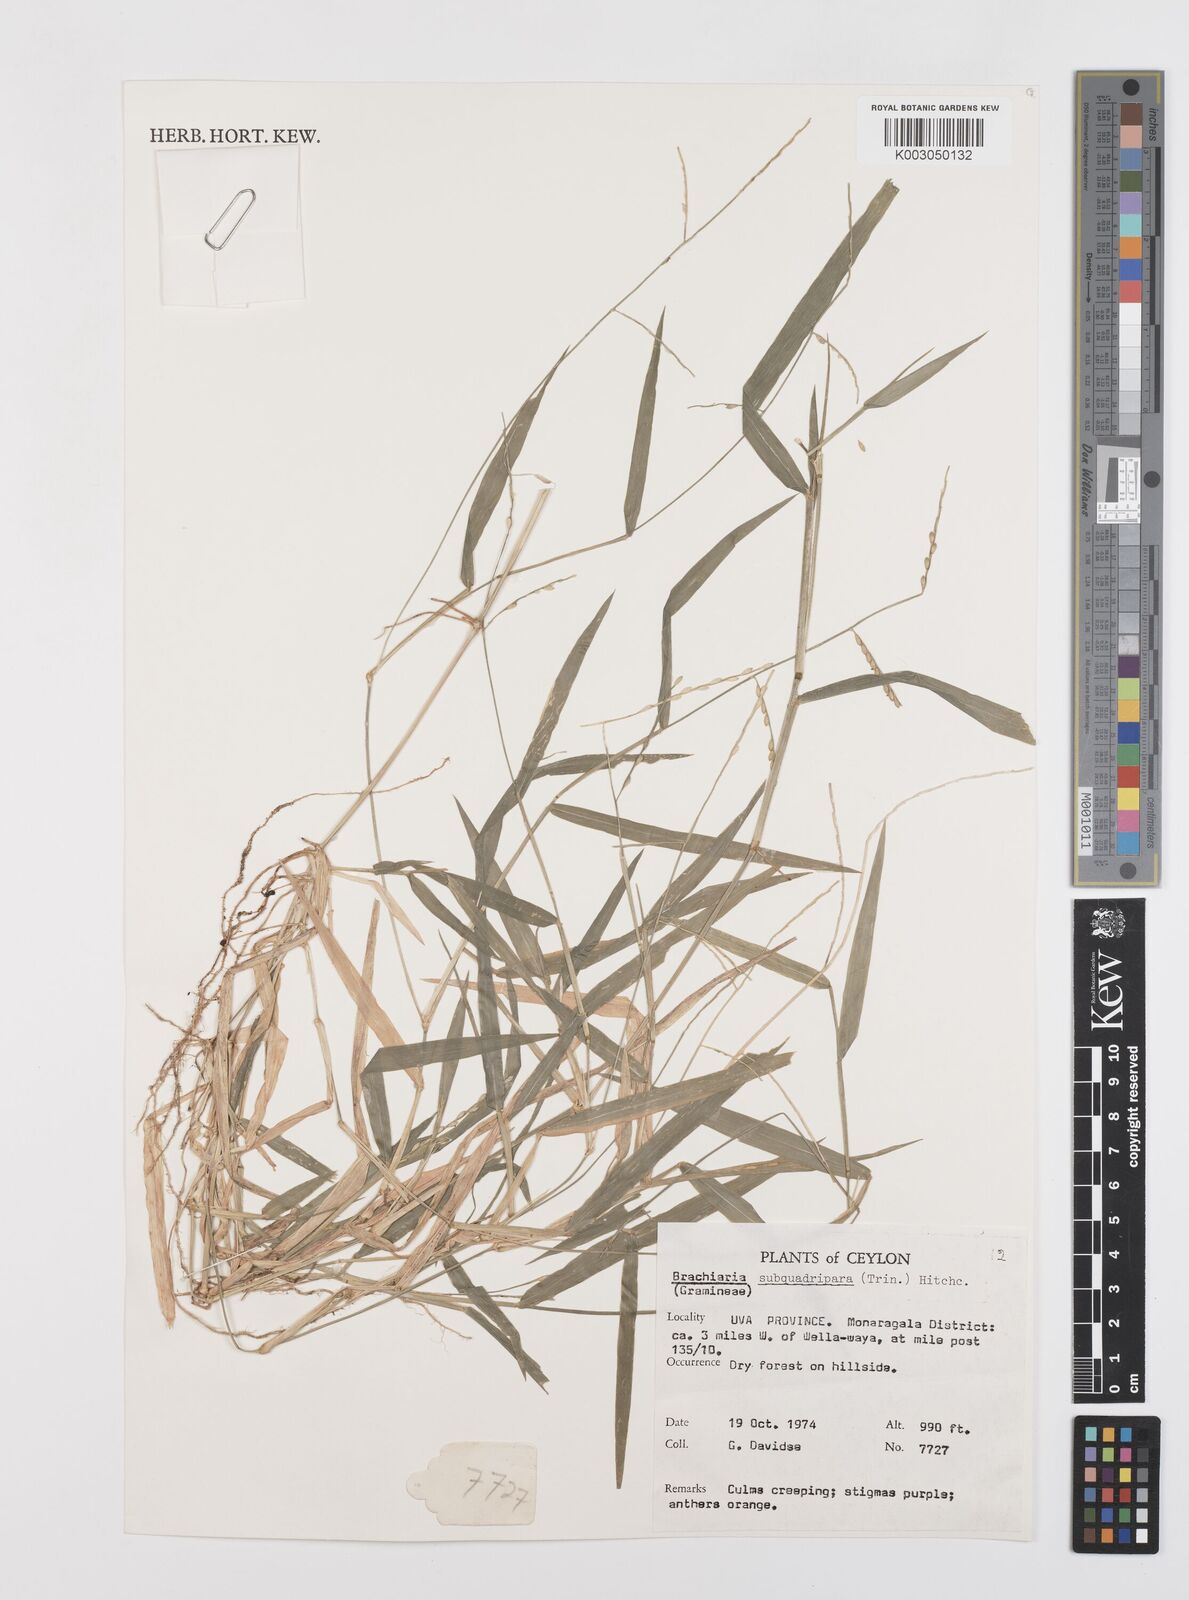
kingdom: Plantae
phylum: Tracheophyta
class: Liliopsida
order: Poales
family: Poaceae
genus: Urochloa
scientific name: Urochloa subquadripara
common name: Armgrass millet
